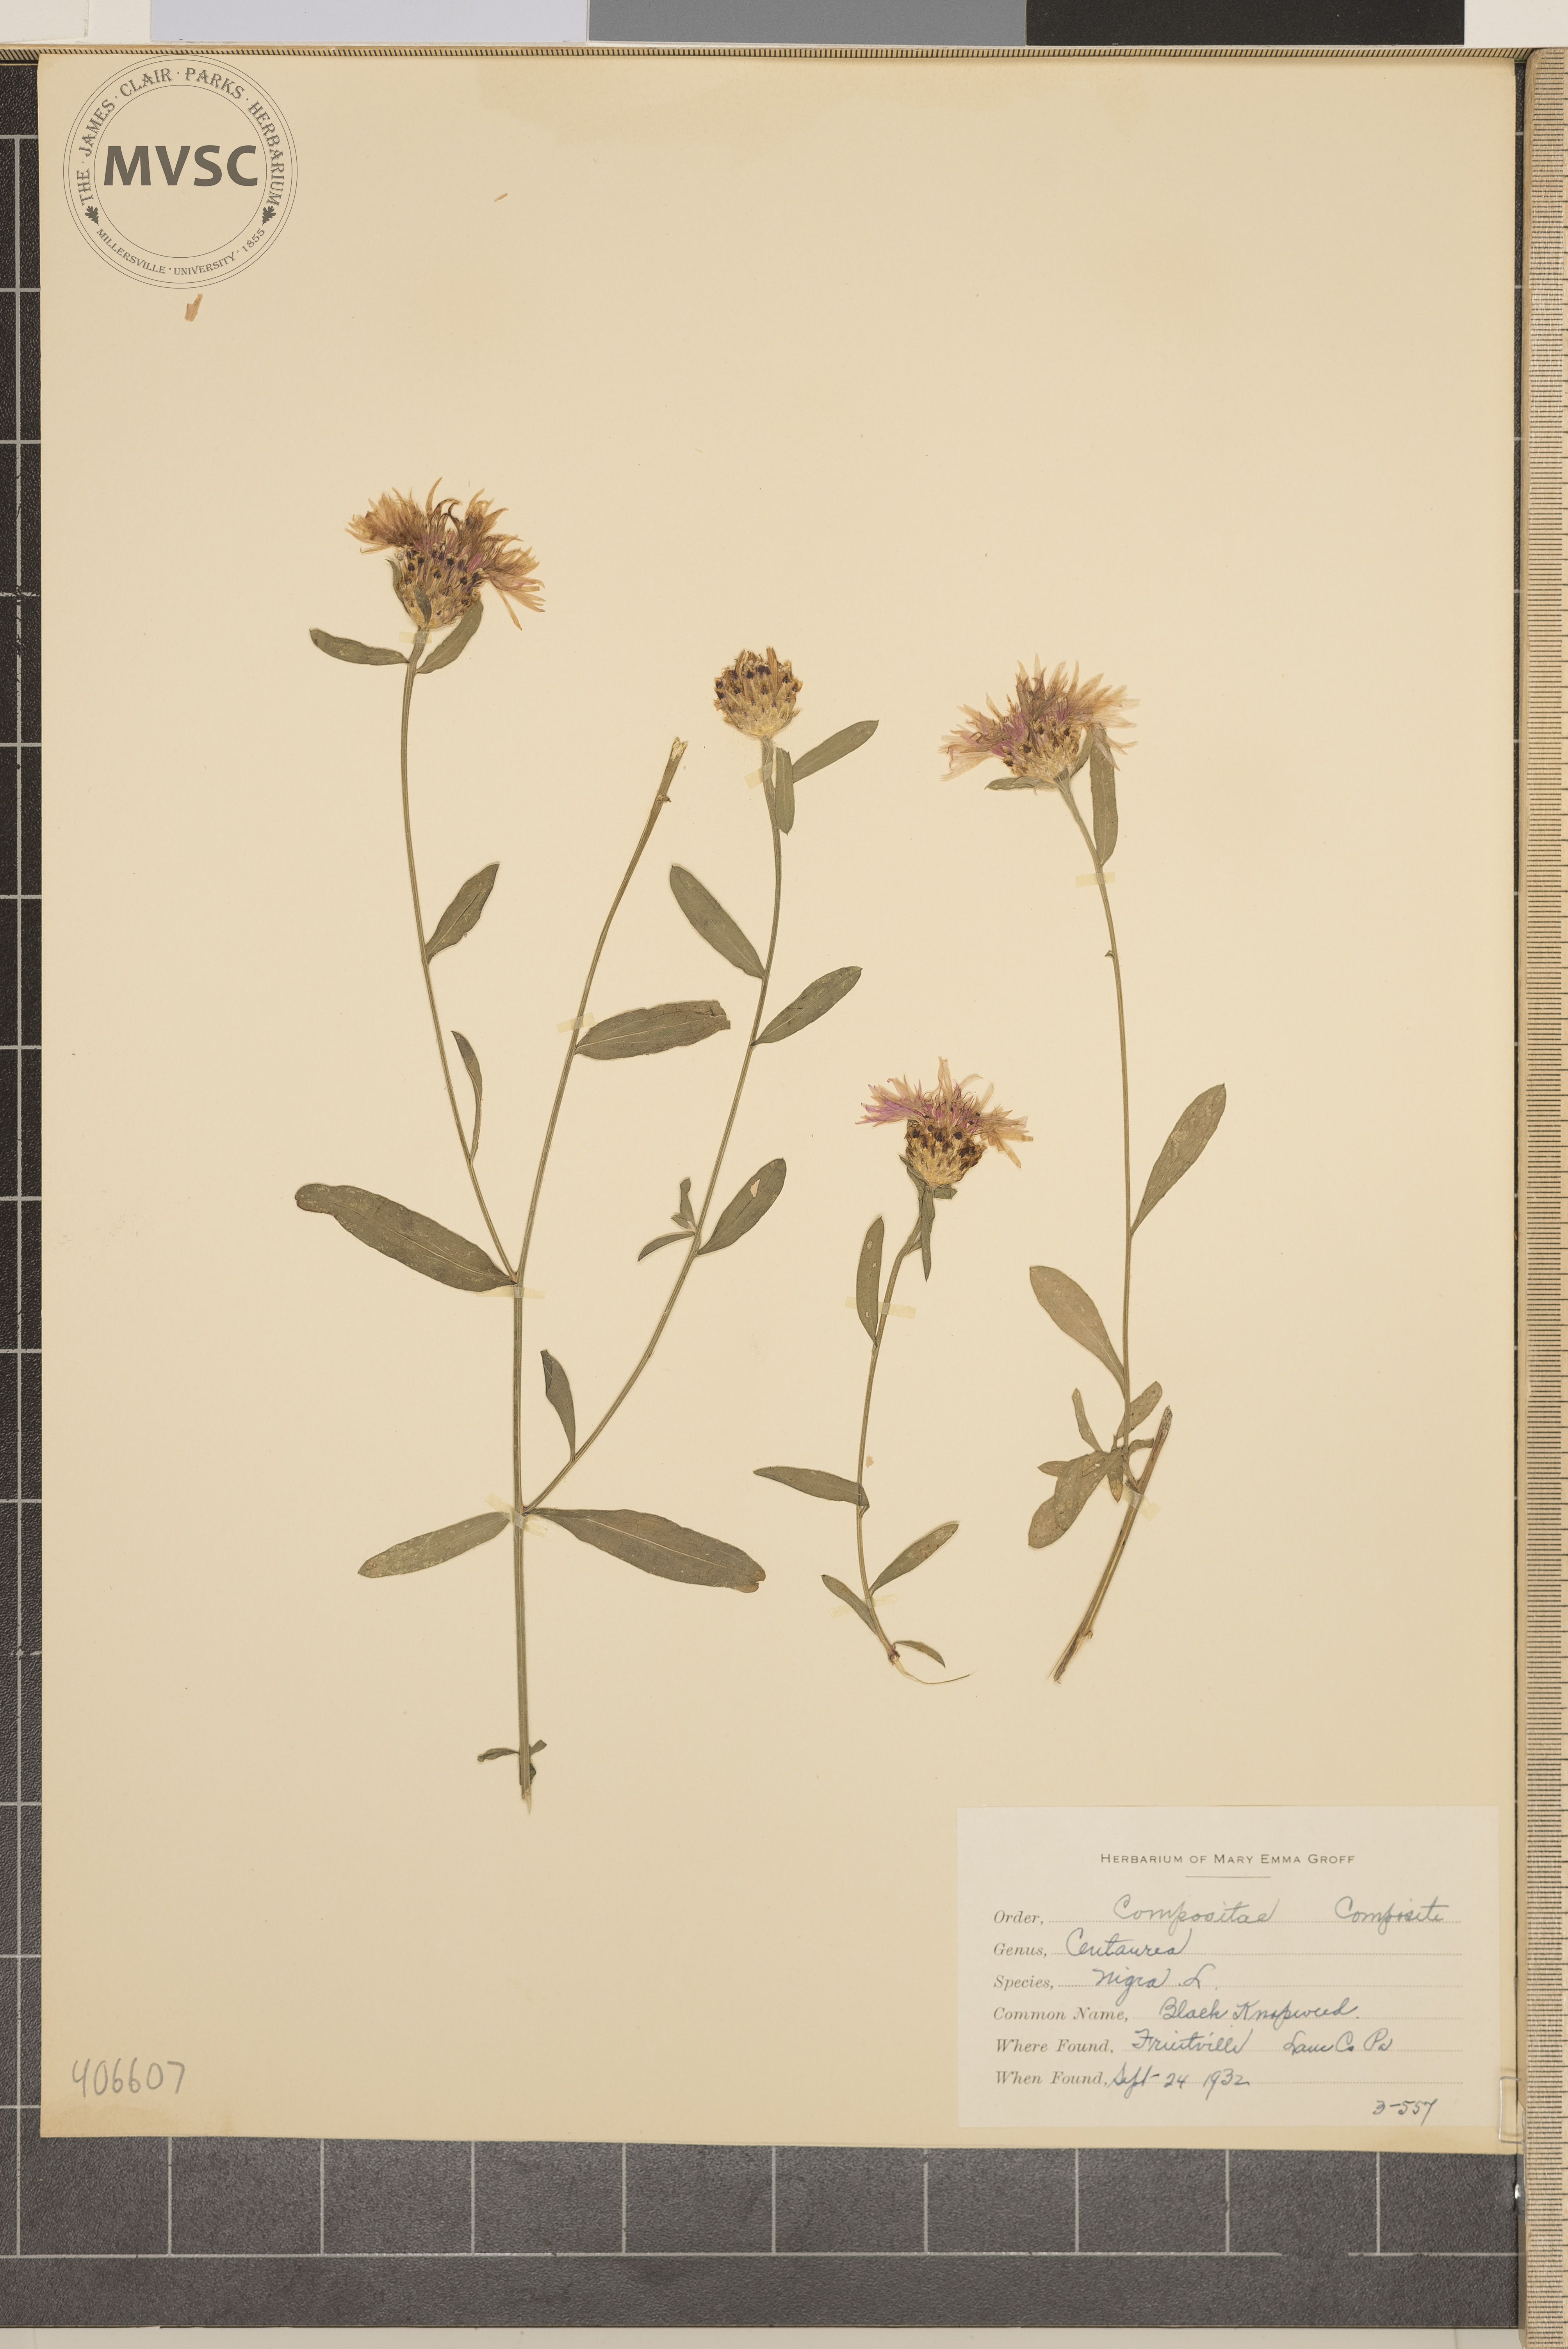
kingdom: Plantae
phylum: Tracheophyta
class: Magnoliopsida
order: Asterales
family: Asteraceae
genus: Centaurea
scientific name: Centaurea nigra
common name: Black Knapweed
